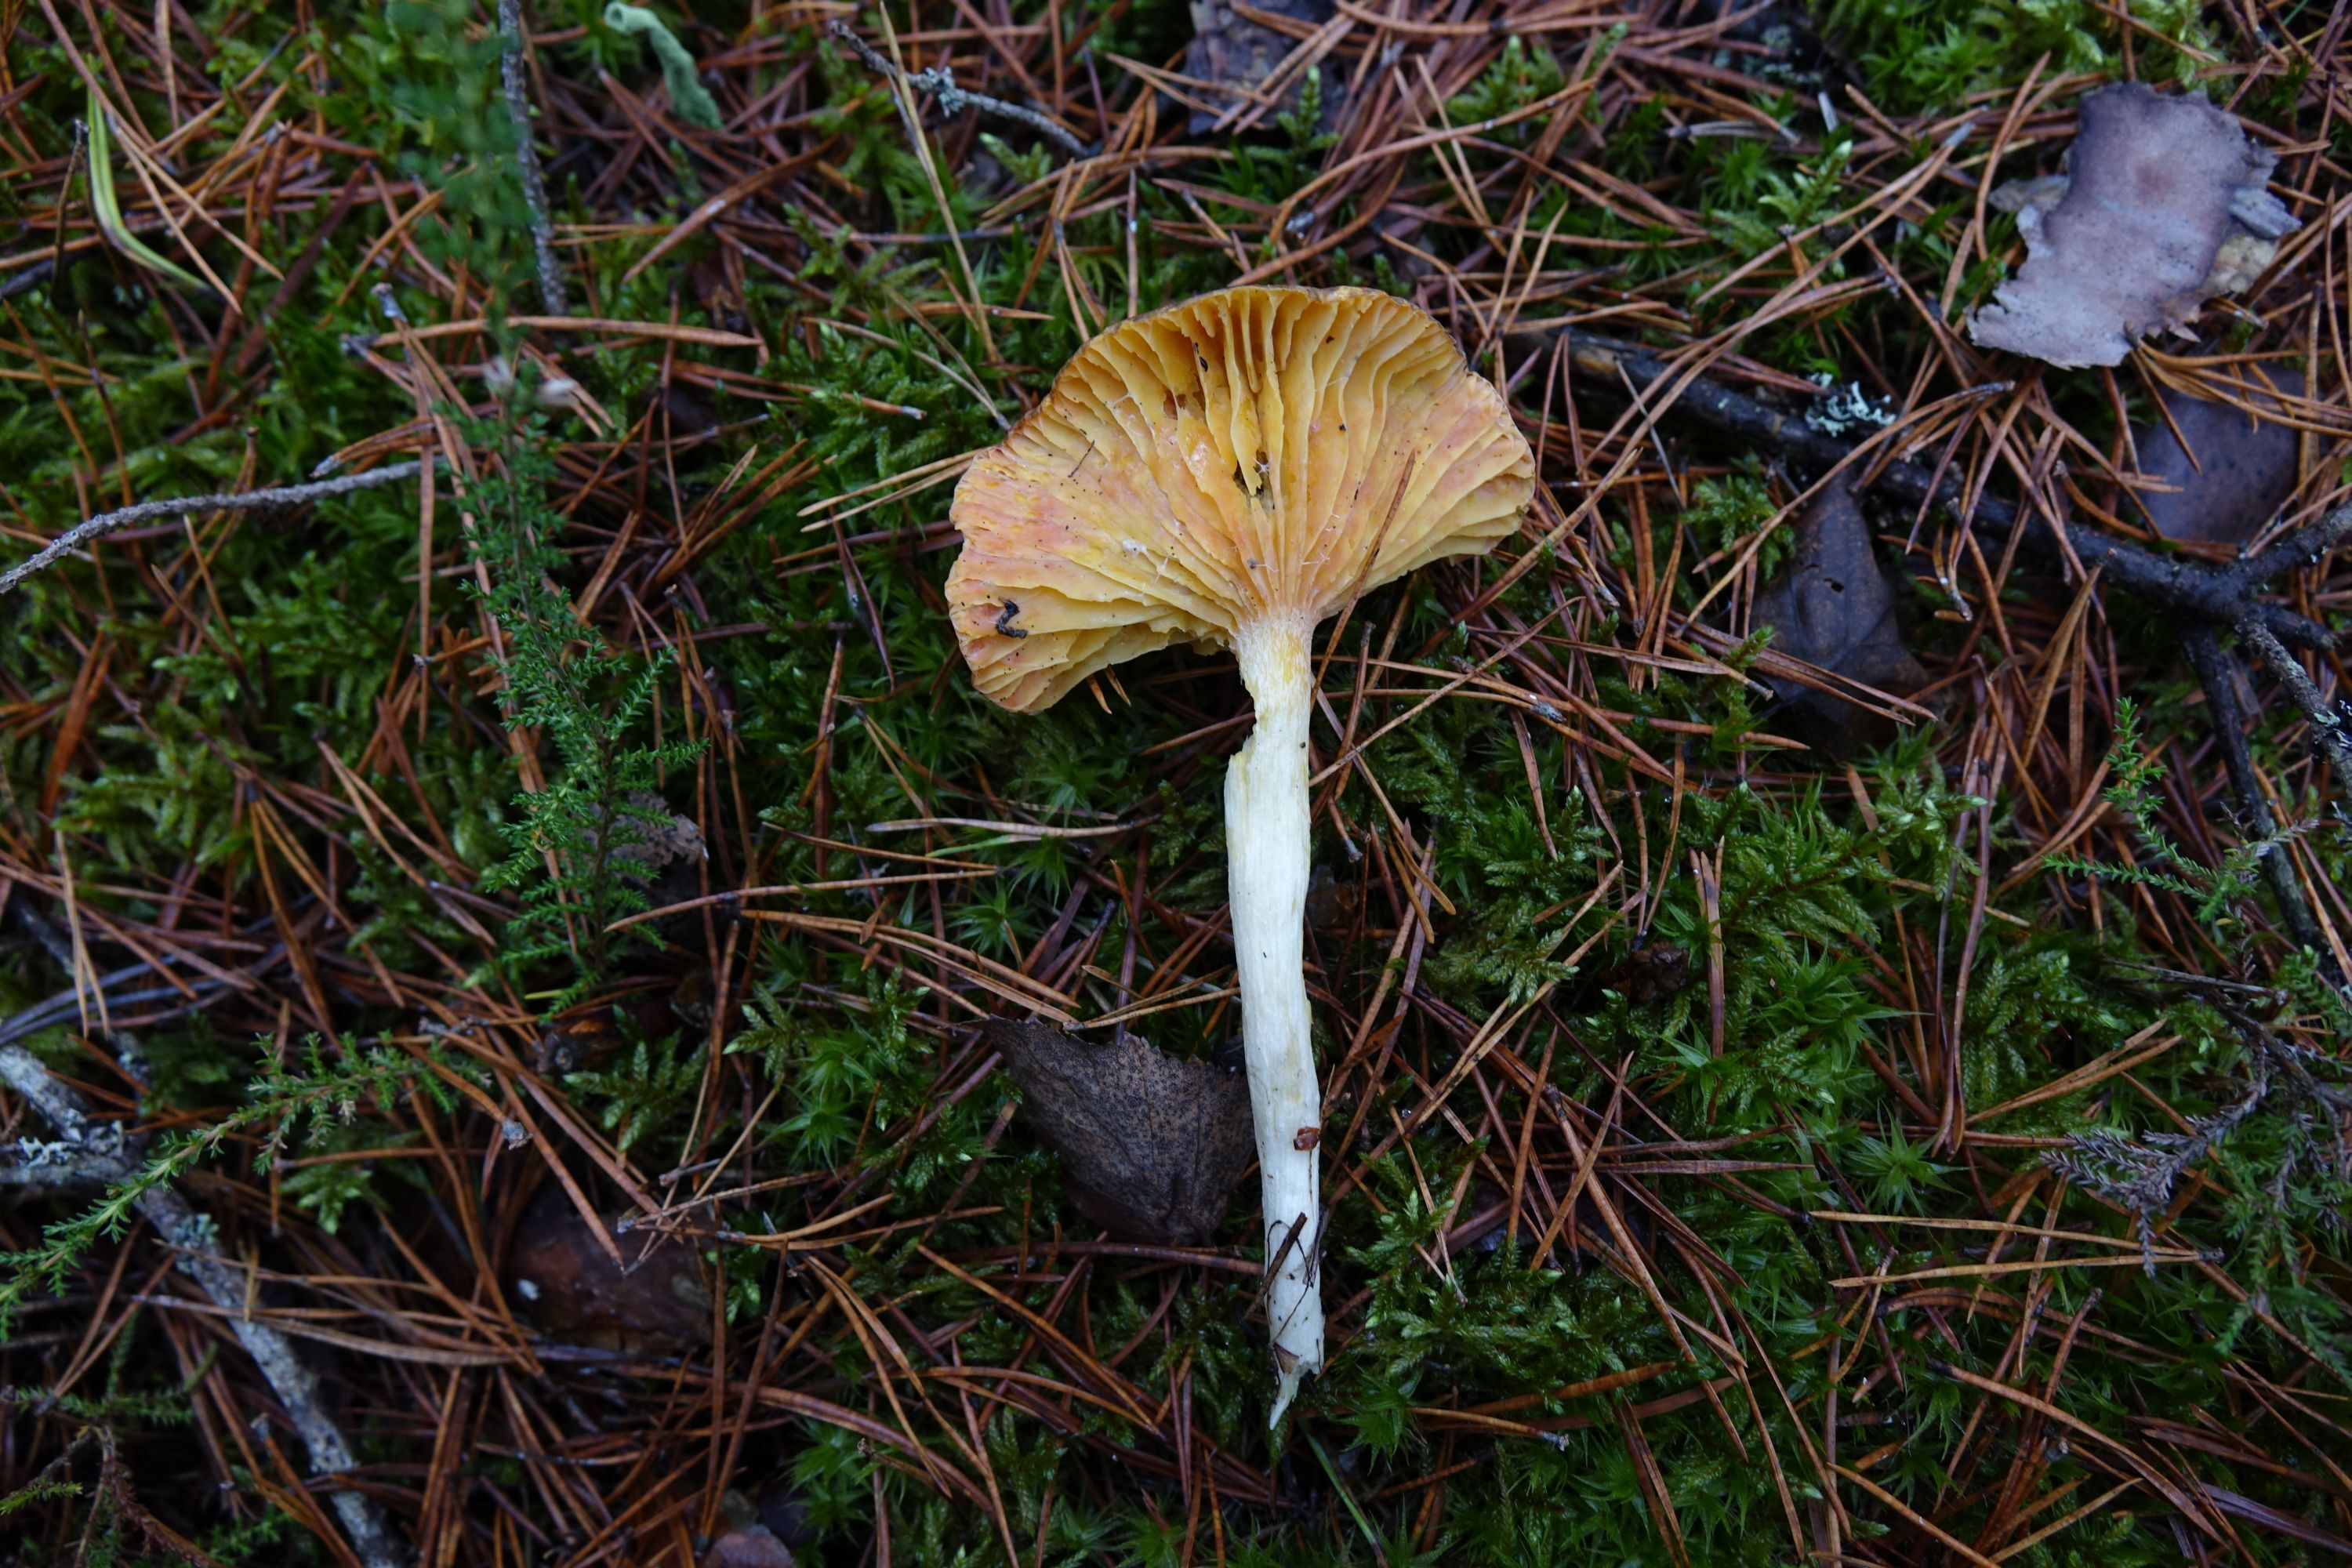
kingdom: Fungi
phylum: Basidiomycota
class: Agaricomycetes
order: Agaricales
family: Hygrophoraceae
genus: Hygrophorus
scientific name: Hygrophorus hypothejus
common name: Herald of winter
